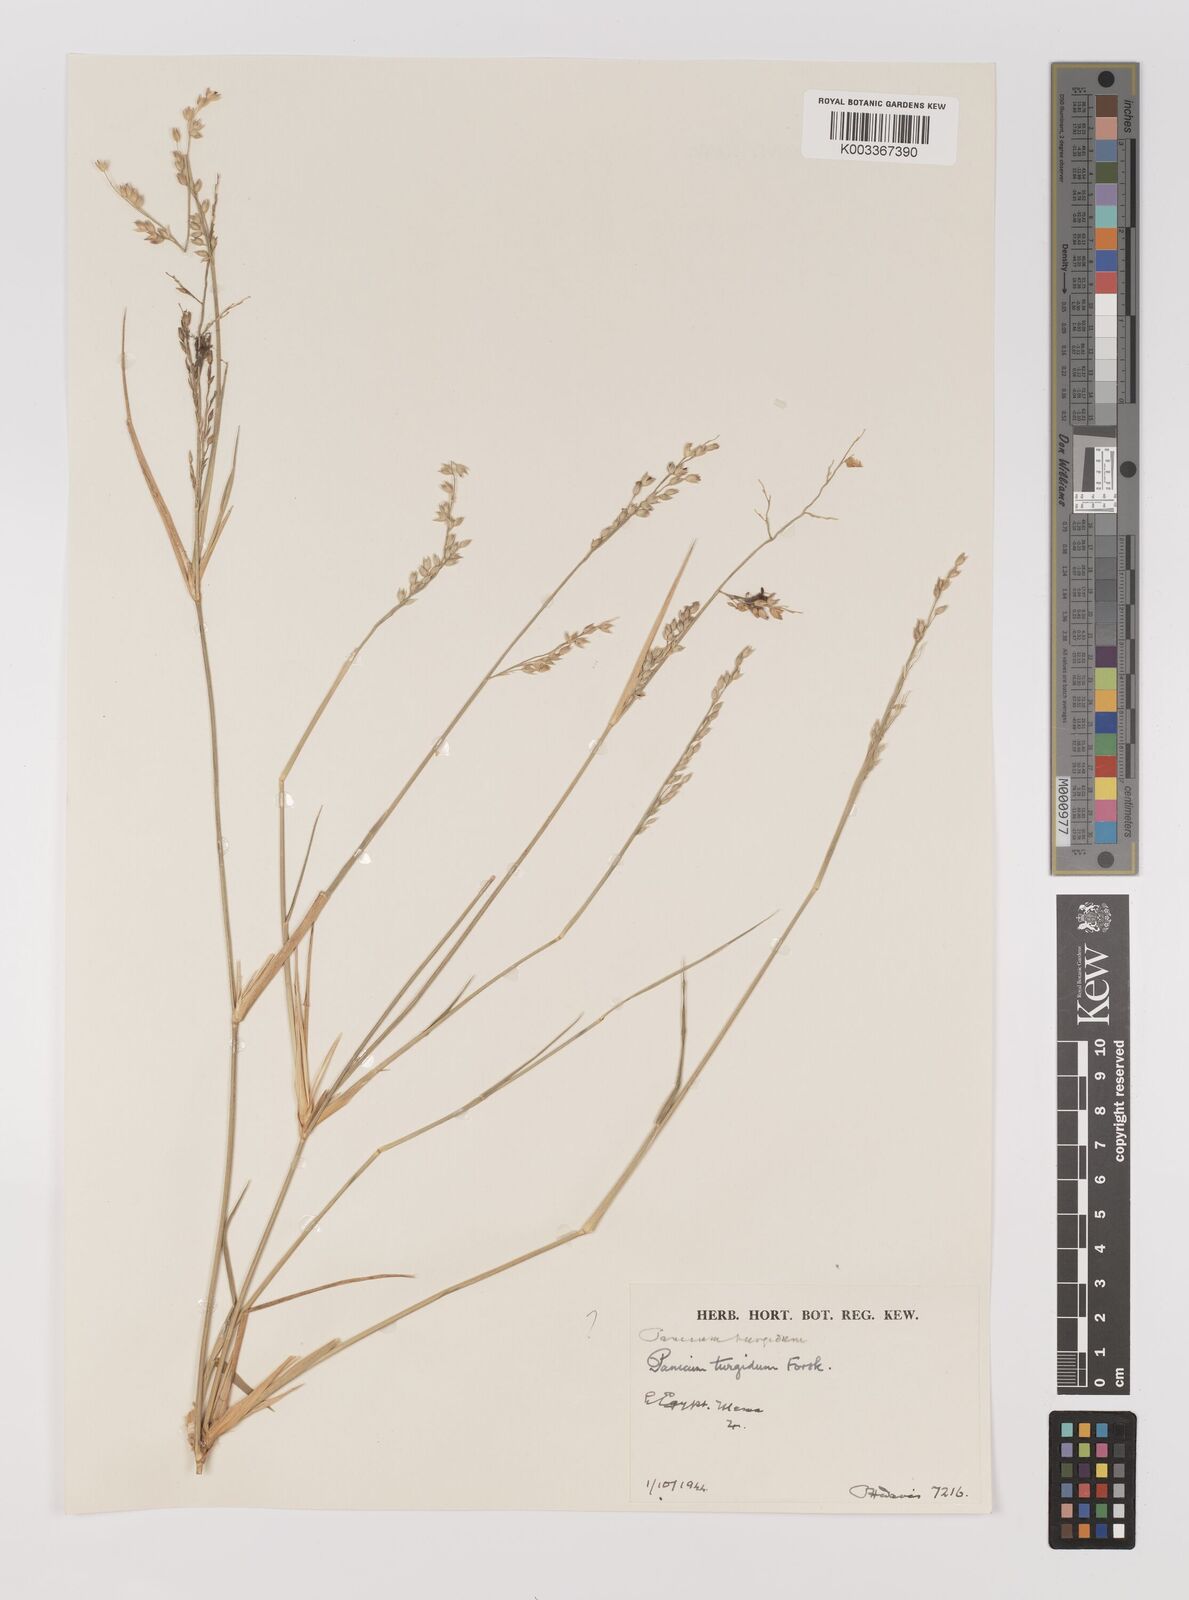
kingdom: Plantae
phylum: Tracheophyta
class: Liliopsida
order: Poales
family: Poaceae
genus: Panicum
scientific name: Panicum turgidum
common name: Desert grass
